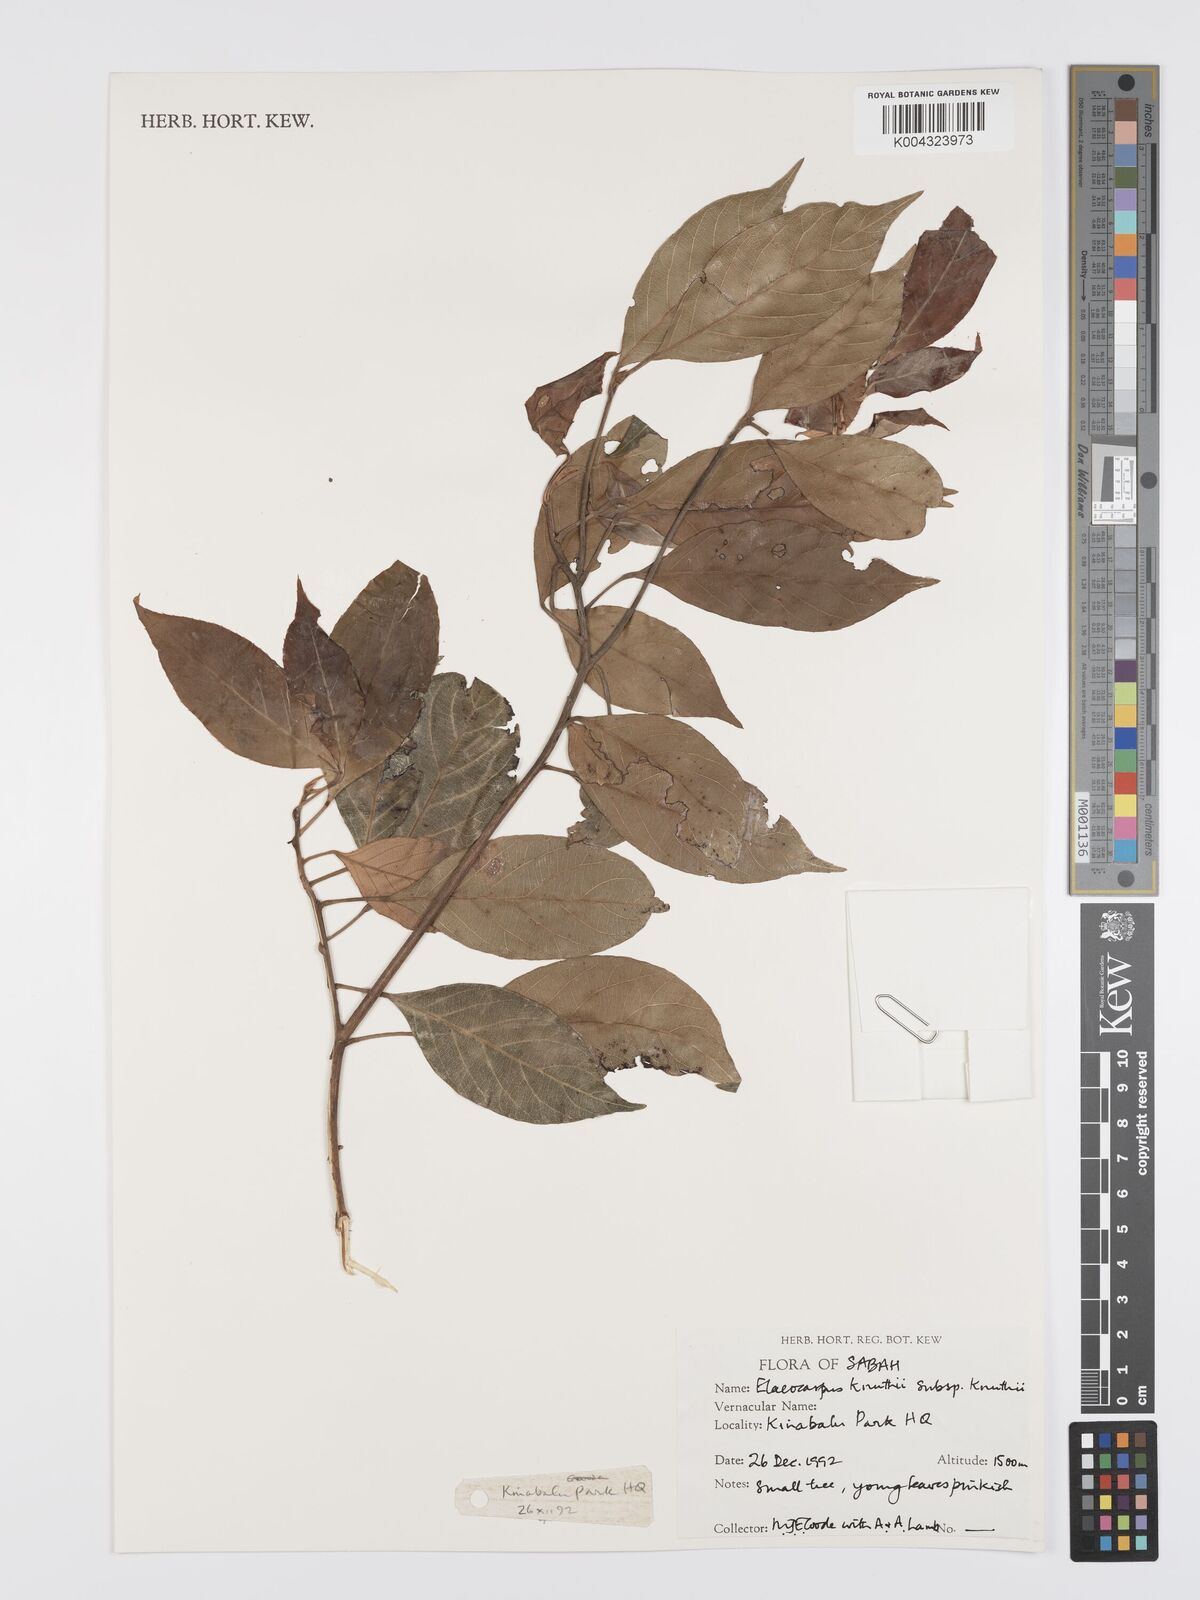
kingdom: Plantae
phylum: Tracheophyta
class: Magnoliopsida
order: Oxalidales
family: Elaeocarpaceae
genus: Elaeocarpus
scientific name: Elaeocarpus knuthii
